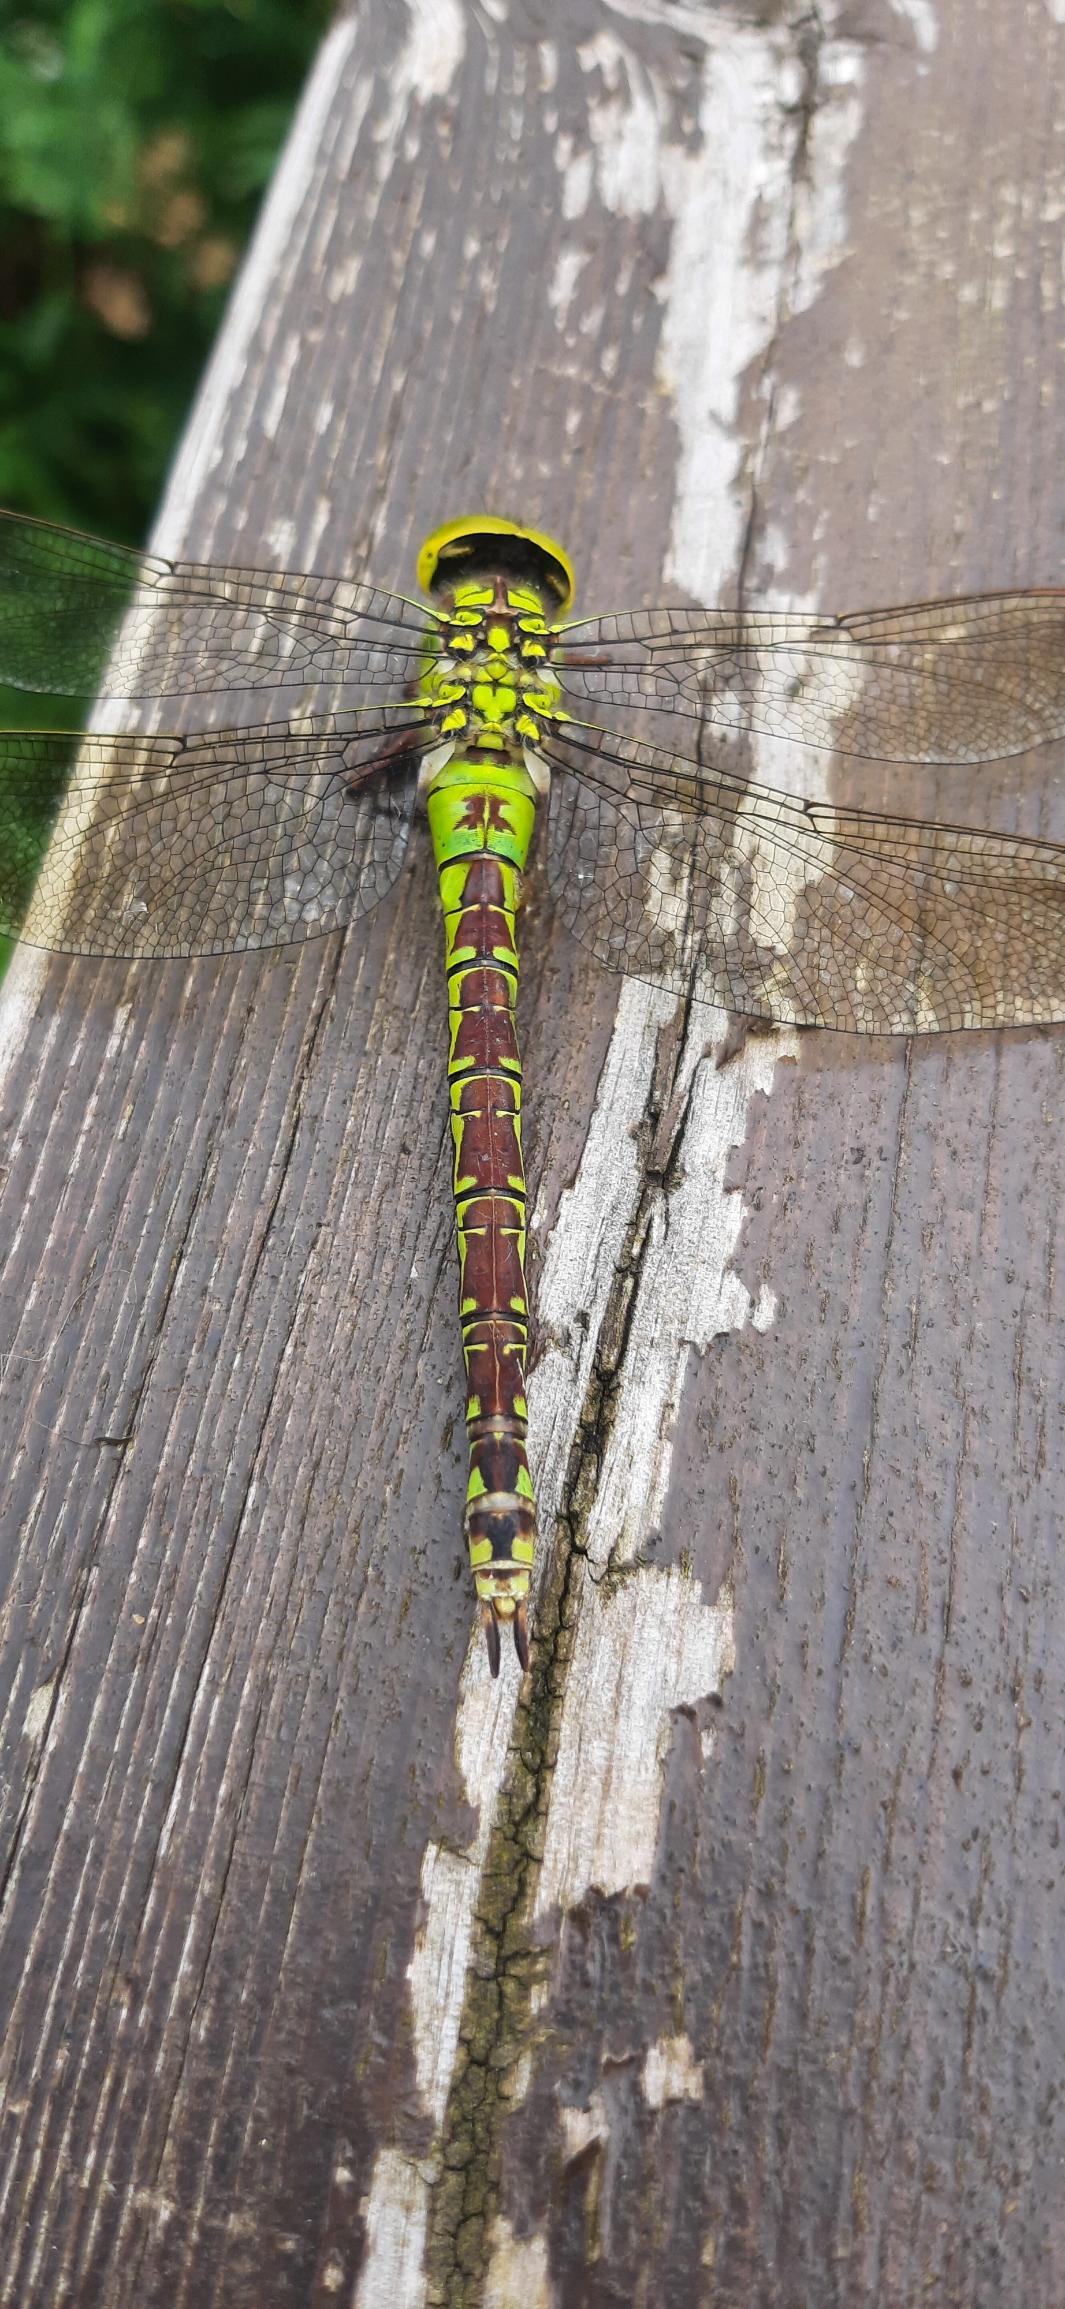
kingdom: Animalia
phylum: Arthropoda
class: Insecta
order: Odonata
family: Aeshnidae
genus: Aeshna
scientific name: Aeshna viridis
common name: Grøn mosaikguldsmed
